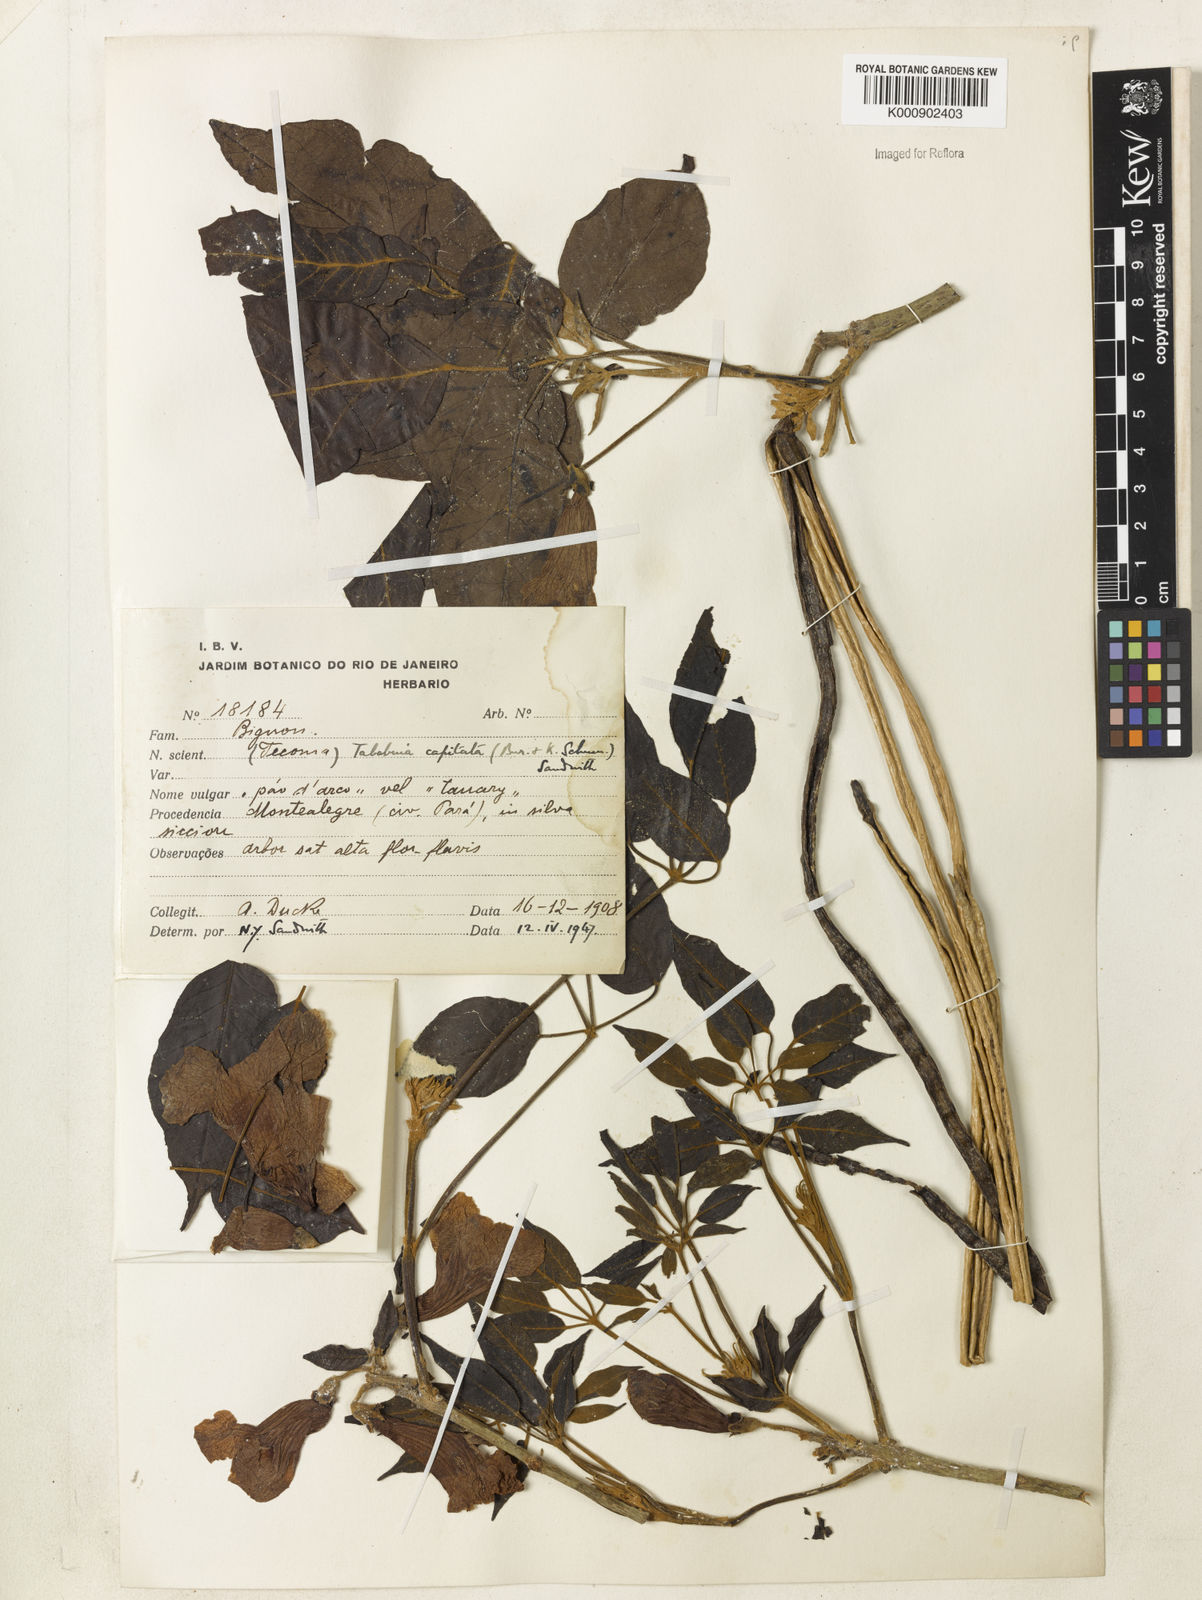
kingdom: Plantae
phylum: Tracheophyta
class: Magnoliopsida
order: Lamiales
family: Bignoniaceae
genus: Handroanthus
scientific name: Handroanthus capitatus
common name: Trumpet trees
